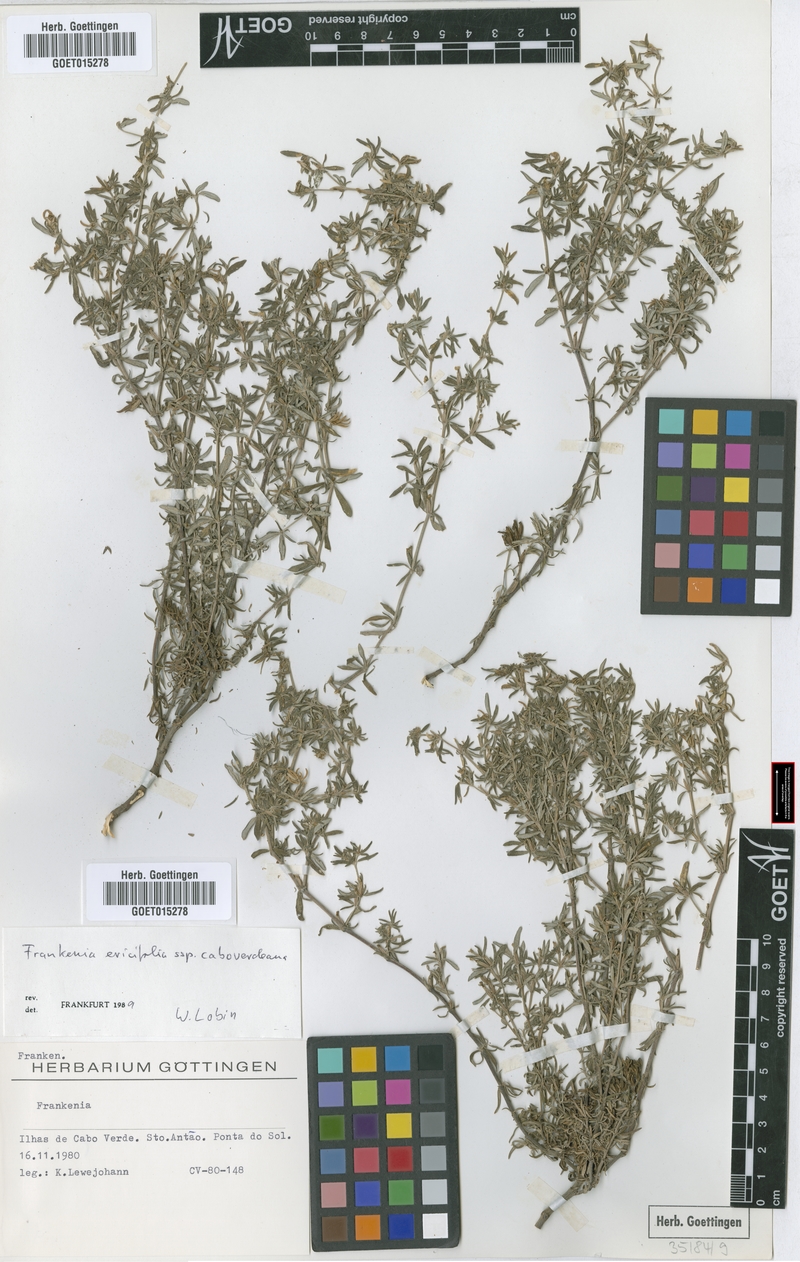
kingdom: Plantae
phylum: Tracheophyta
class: Magnoliopsida
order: Caryophyllales
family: Frankeniaceae
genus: Frankenia
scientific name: Frankenia caboverdeana
